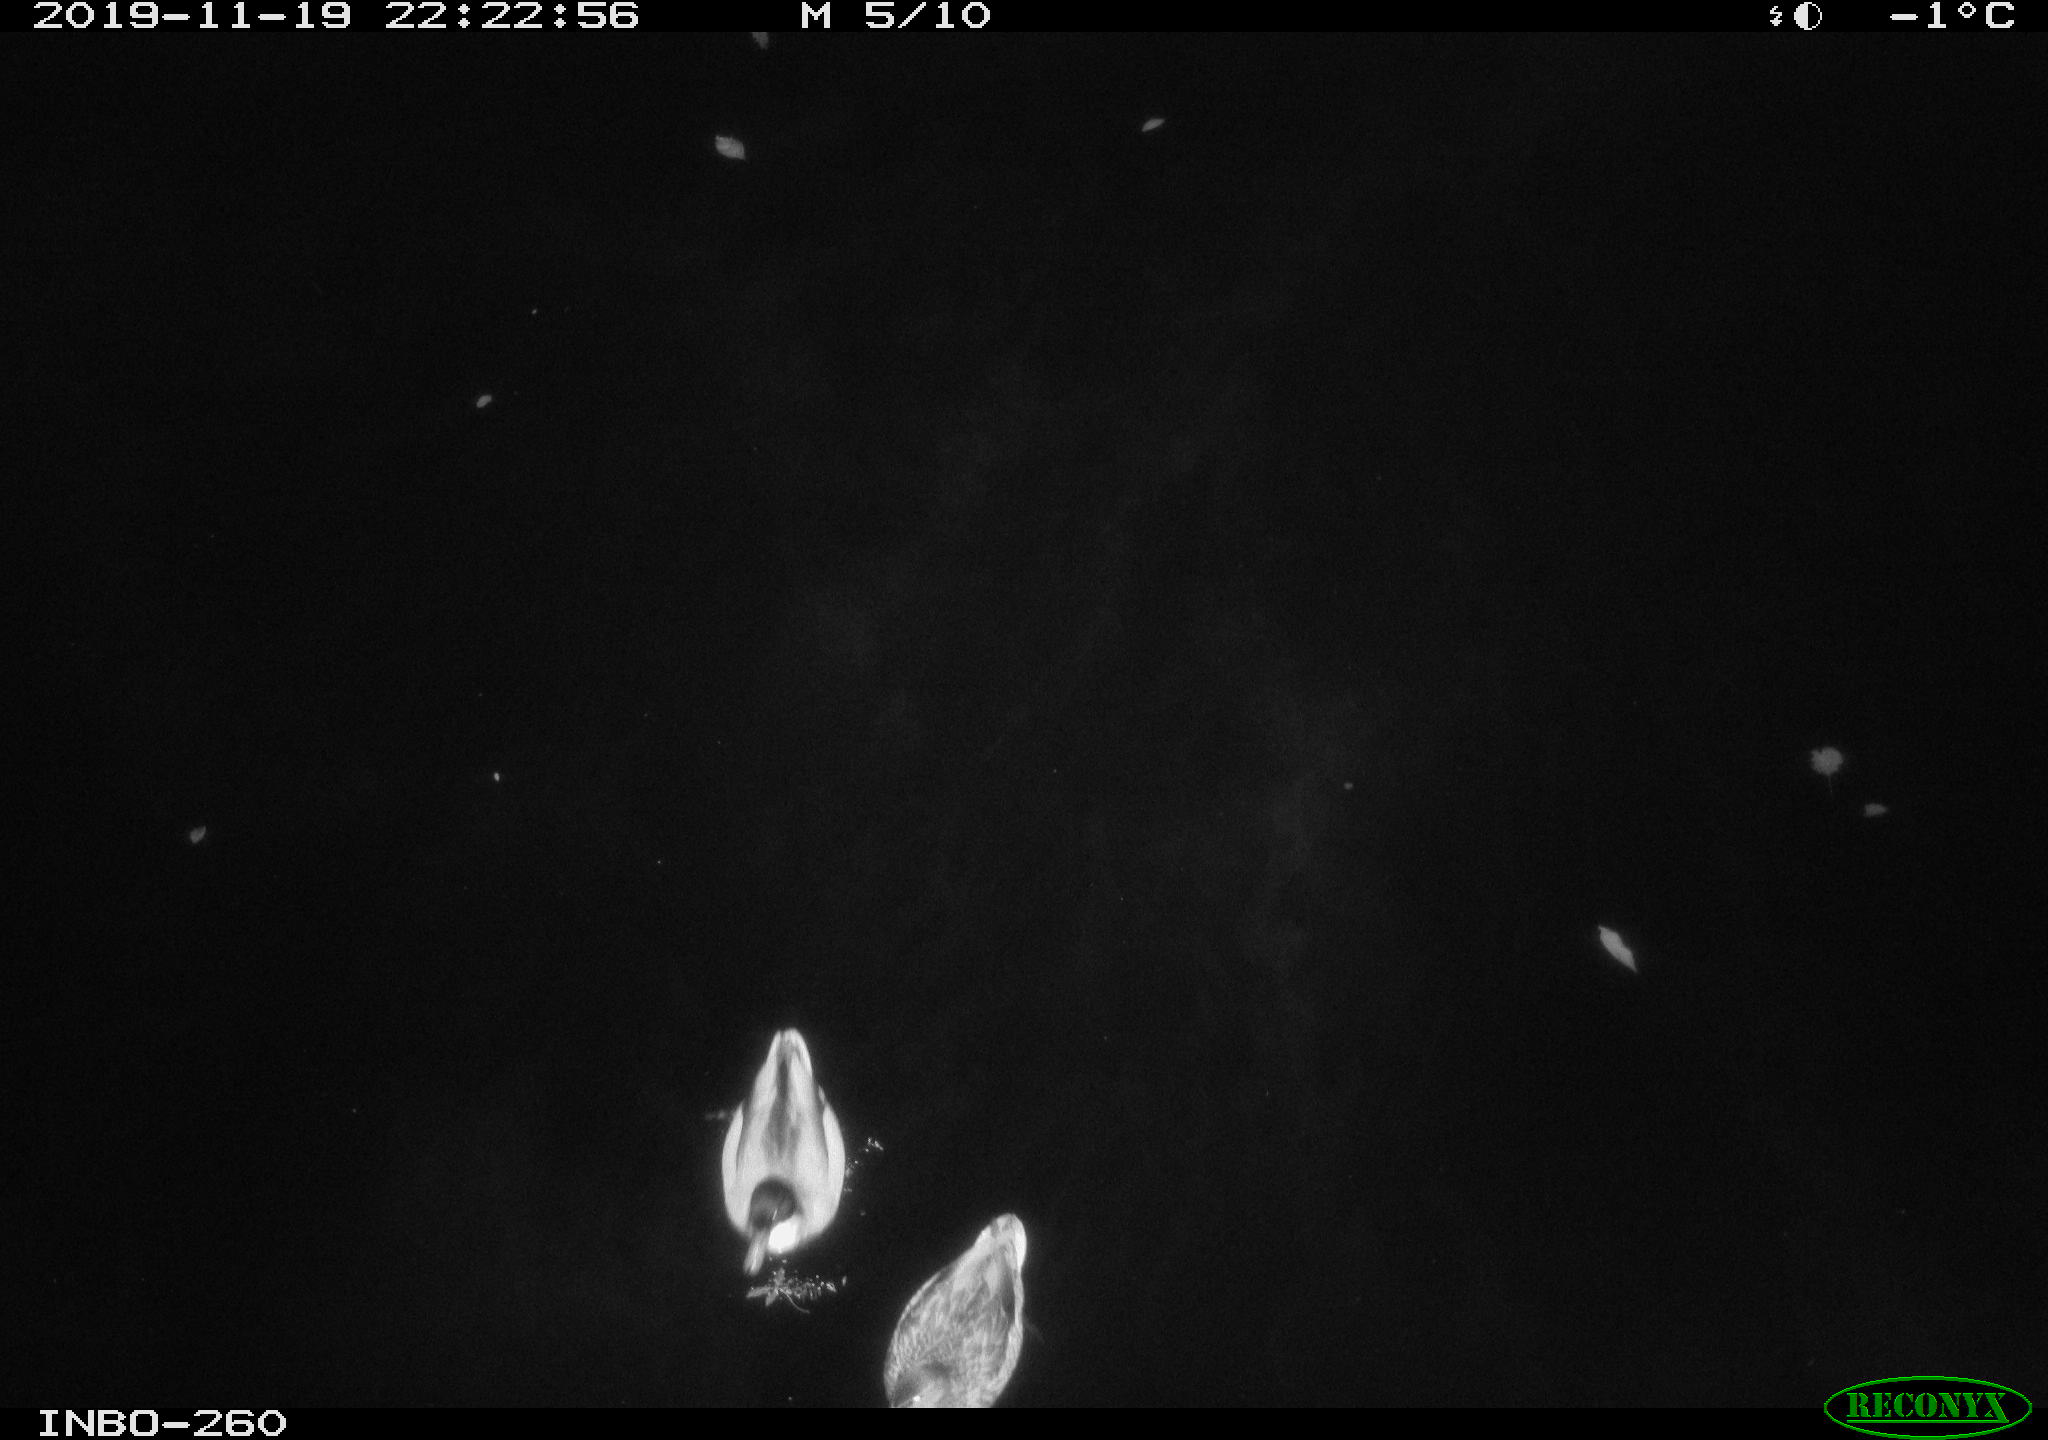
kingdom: Animalia
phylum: Chordata
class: Aves
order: Anseriformes
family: Anatidae
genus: Anas
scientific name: Anas platyrhynchos
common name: Mallard
